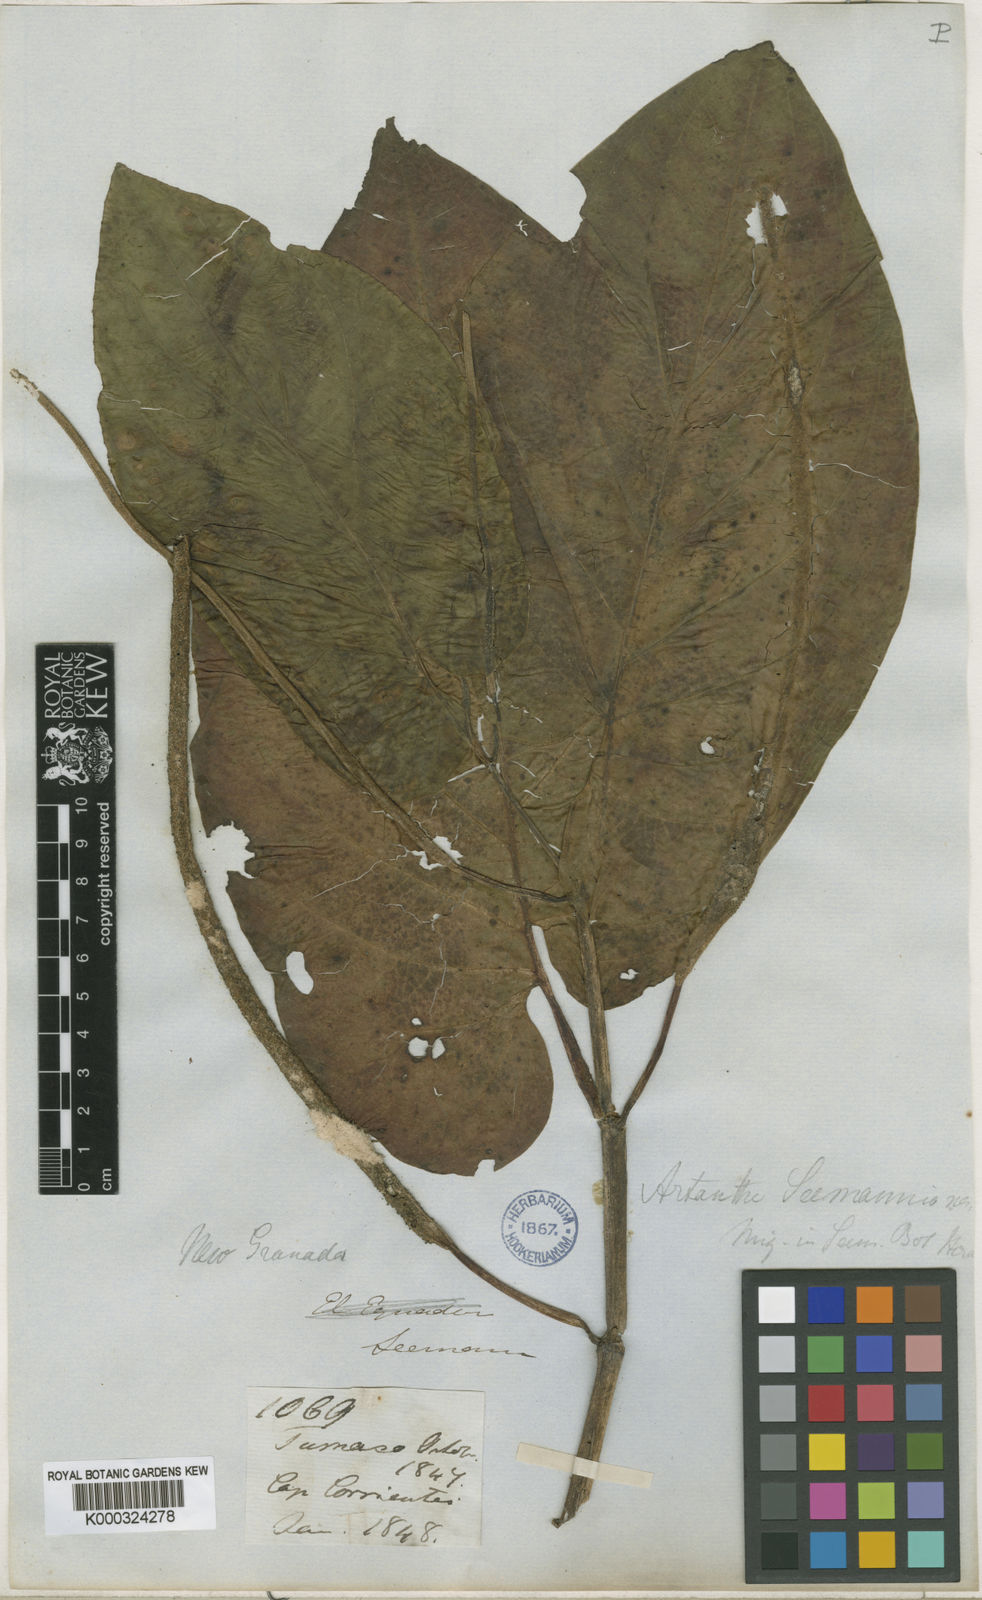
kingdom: Plantae
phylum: Tracheophyta
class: Magnoliopsida
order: Piperales
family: Piperaceae
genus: Piper
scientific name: Piper auritum
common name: Vera cruz pepper
